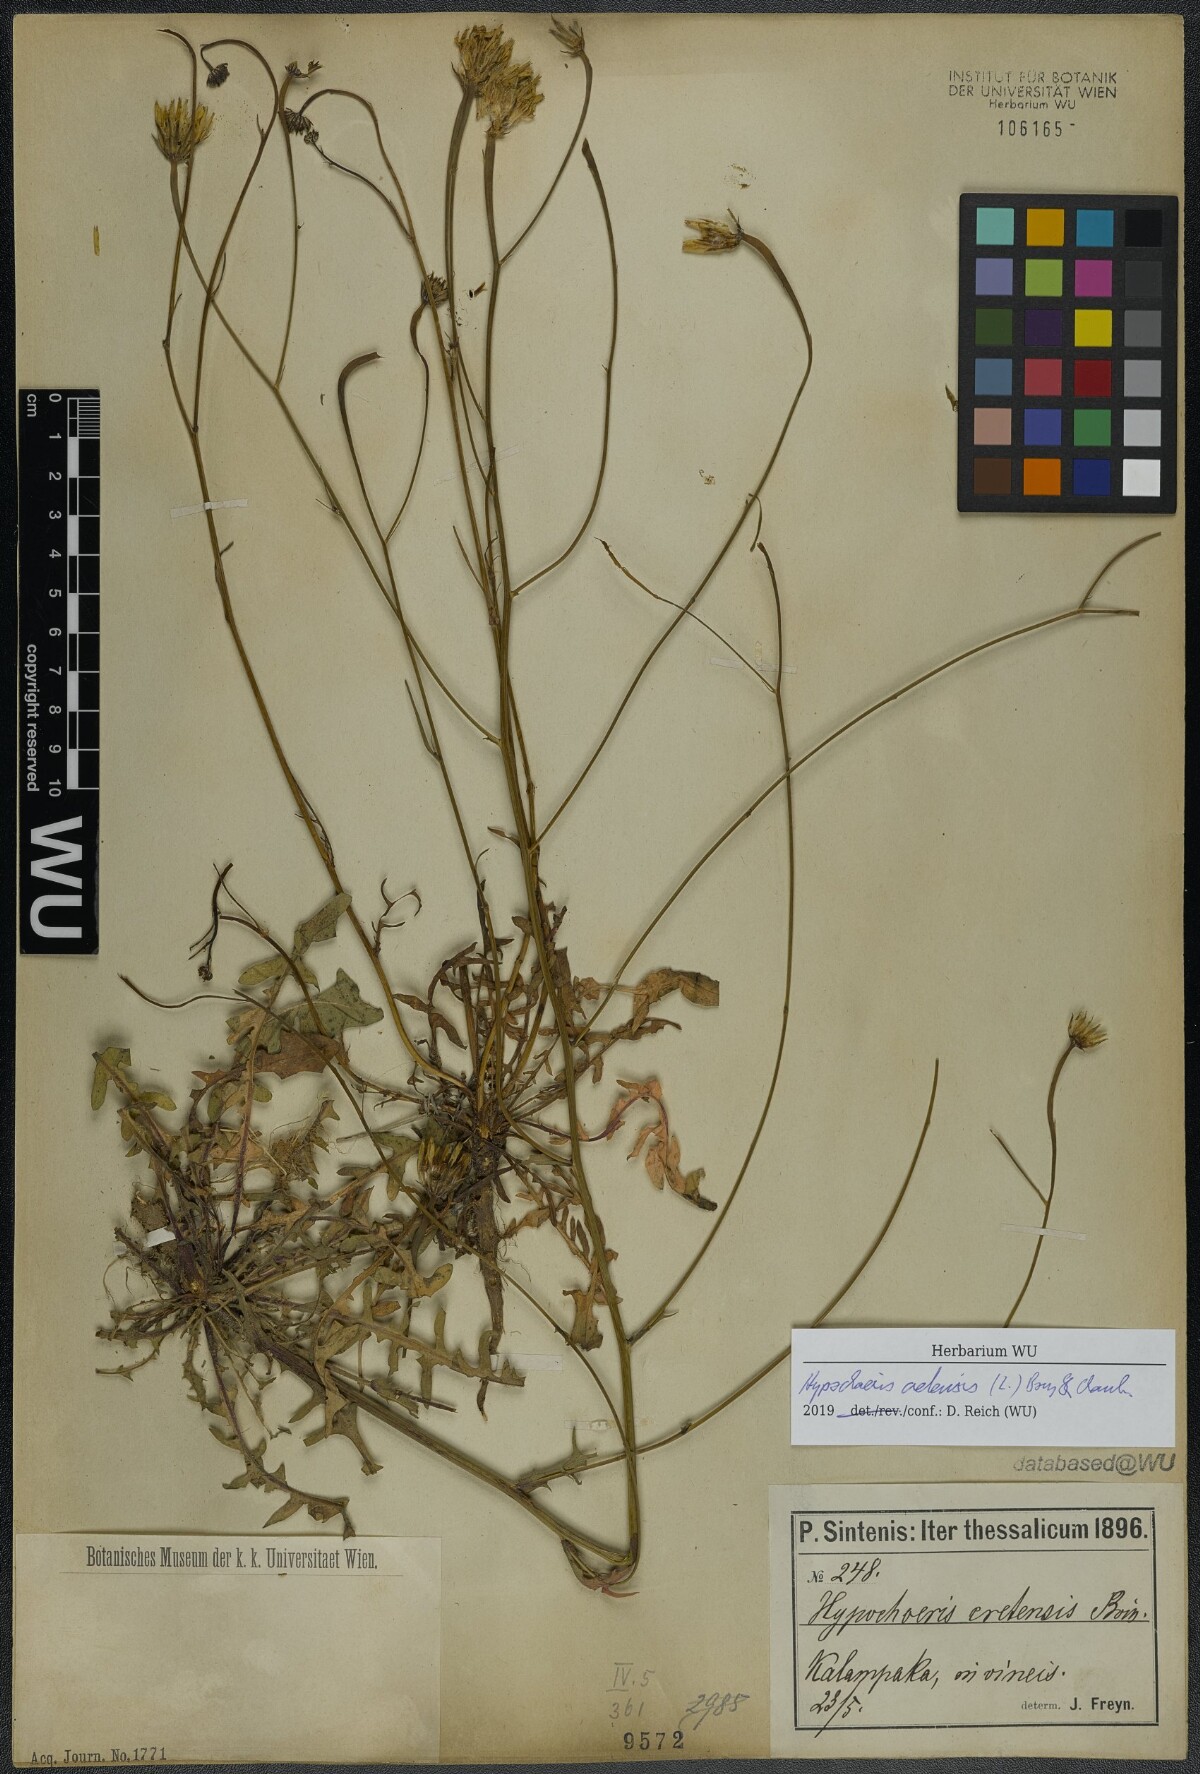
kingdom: Plantae
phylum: Tracheophyta
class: Magnoliopsida
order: Asterales
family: Asteraceae
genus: Hypochaeris
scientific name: Hypochaeris cretensis
